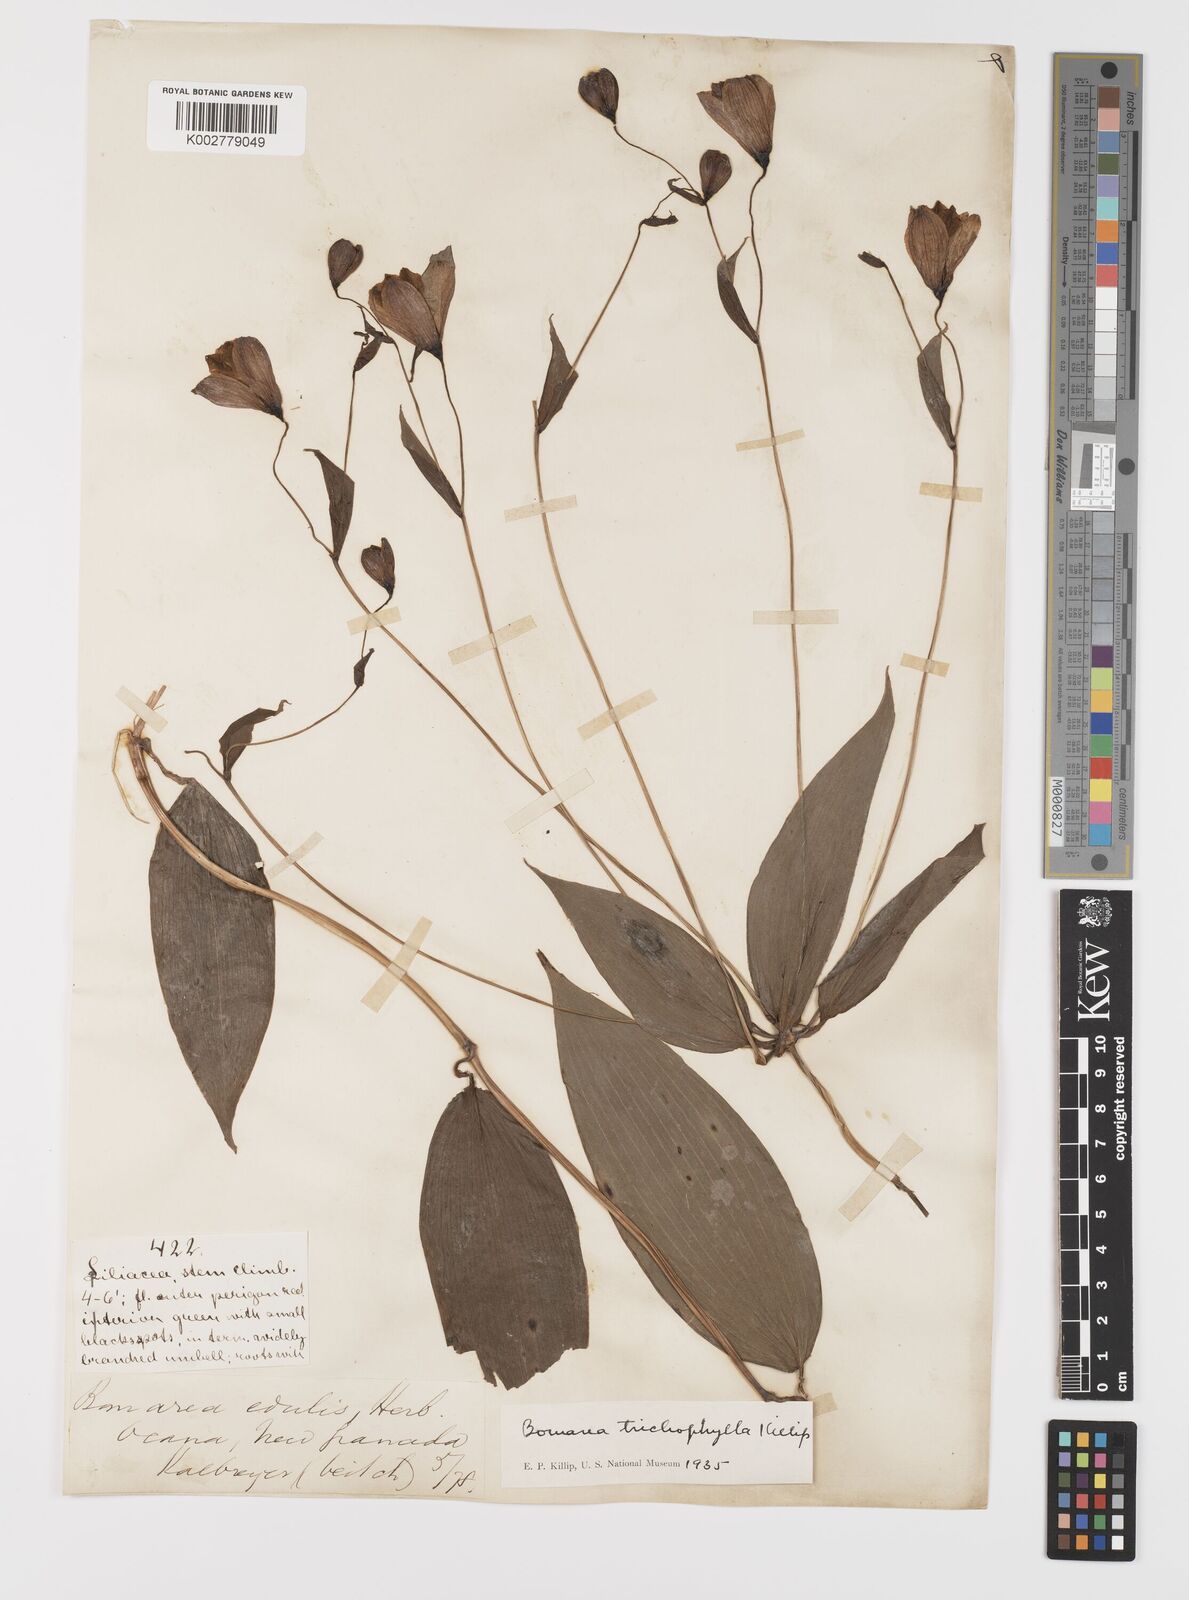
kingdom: Plantae
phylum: Tracheophyta
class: Liliopsida
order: Liliales
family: Alstroemeriaceae
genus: Bomarea
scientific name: Bomarea trichophylla
